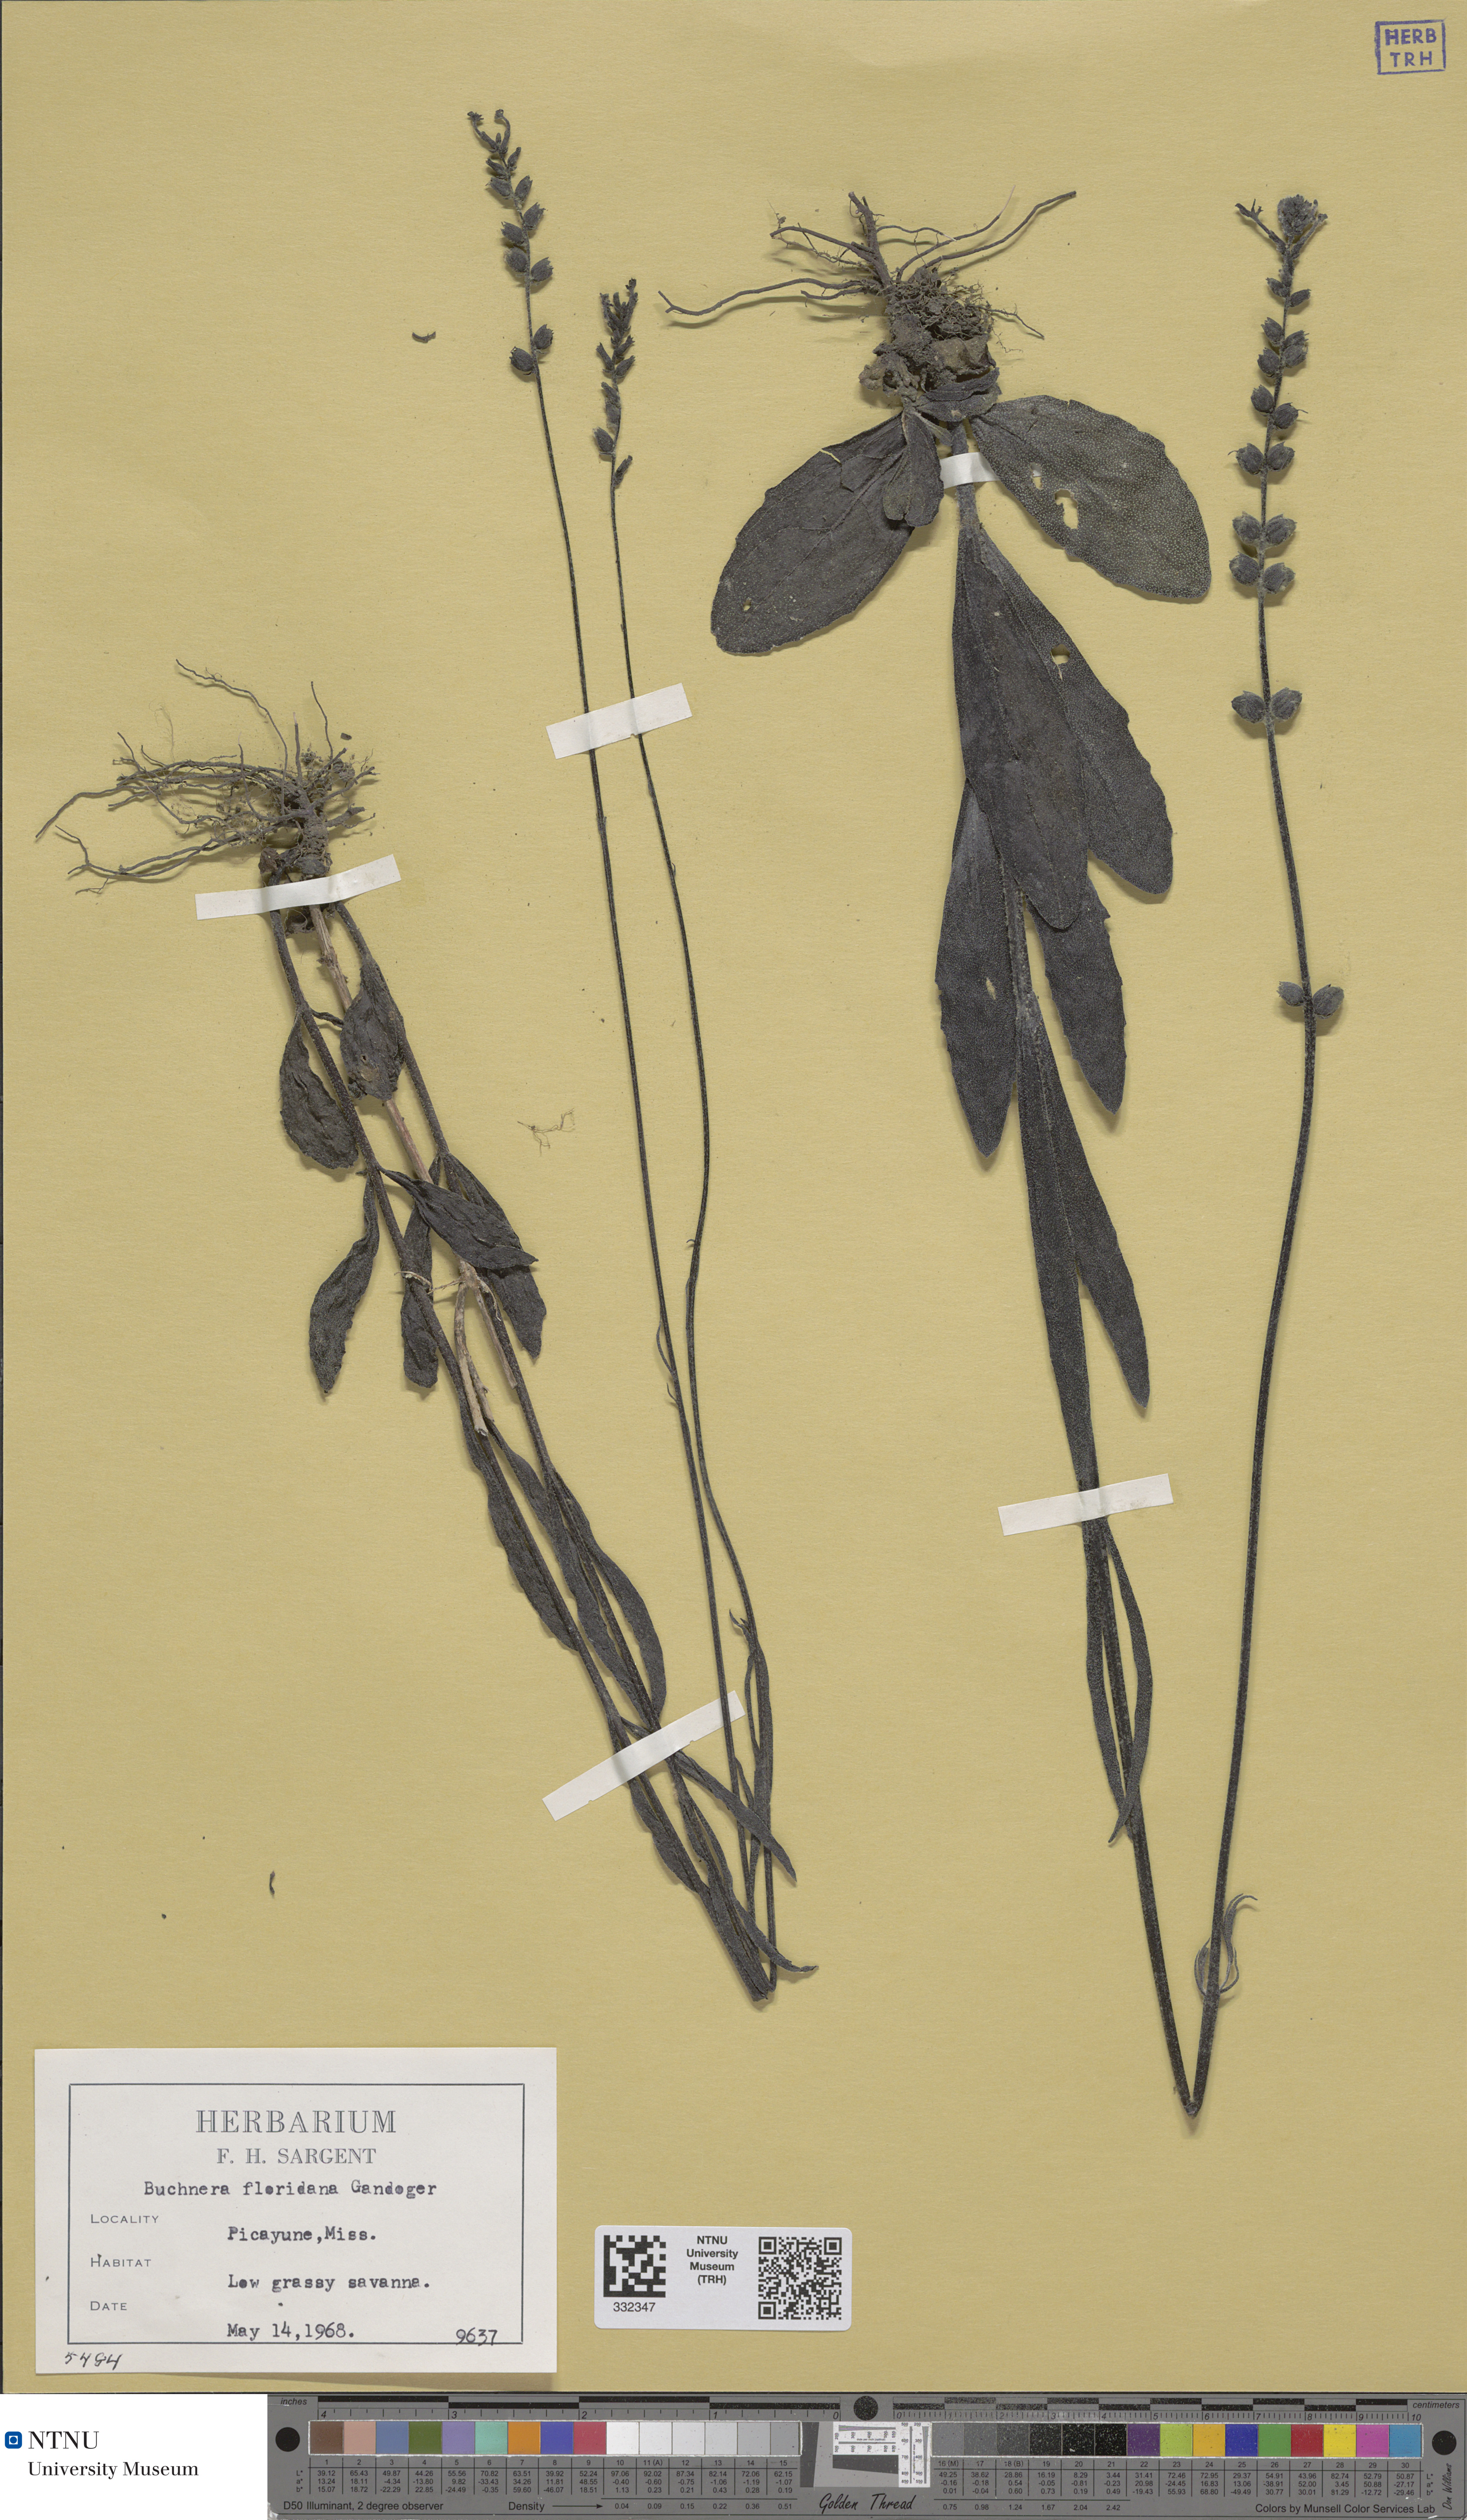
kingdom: Plantae
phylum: Tracheophyta
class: Magnoliopsida
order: Lamiales
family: Orobanchaceae
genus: Buchnera
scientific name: Buchnera floridana
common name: Florida bluehearts
